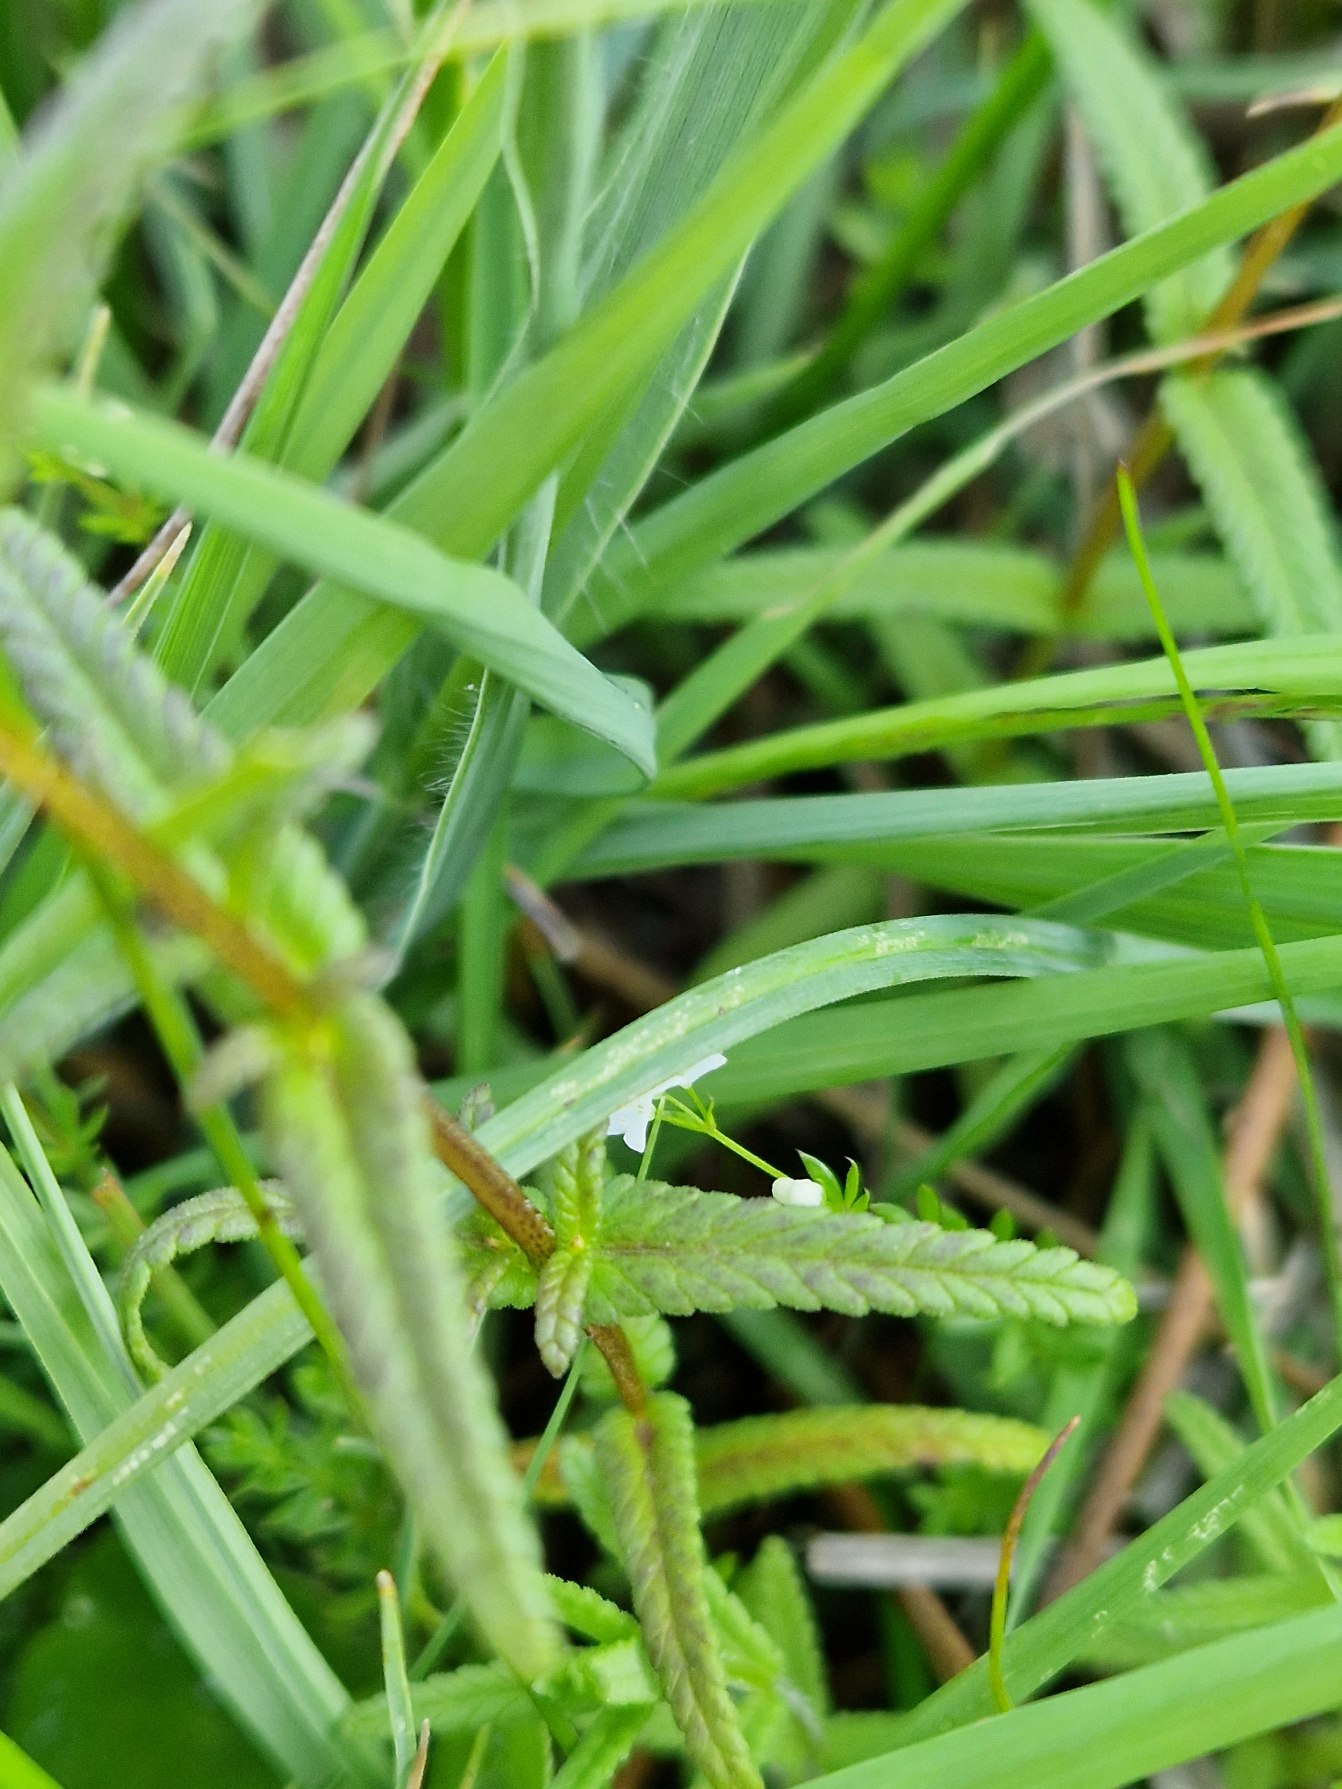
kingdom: Plantae
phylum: Tracheophyta
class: Magnoliopsida
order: Lamiales
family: Orobanchaceae
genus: Rhinanthus
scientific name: Rhinanthus
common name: Stor skjaller
